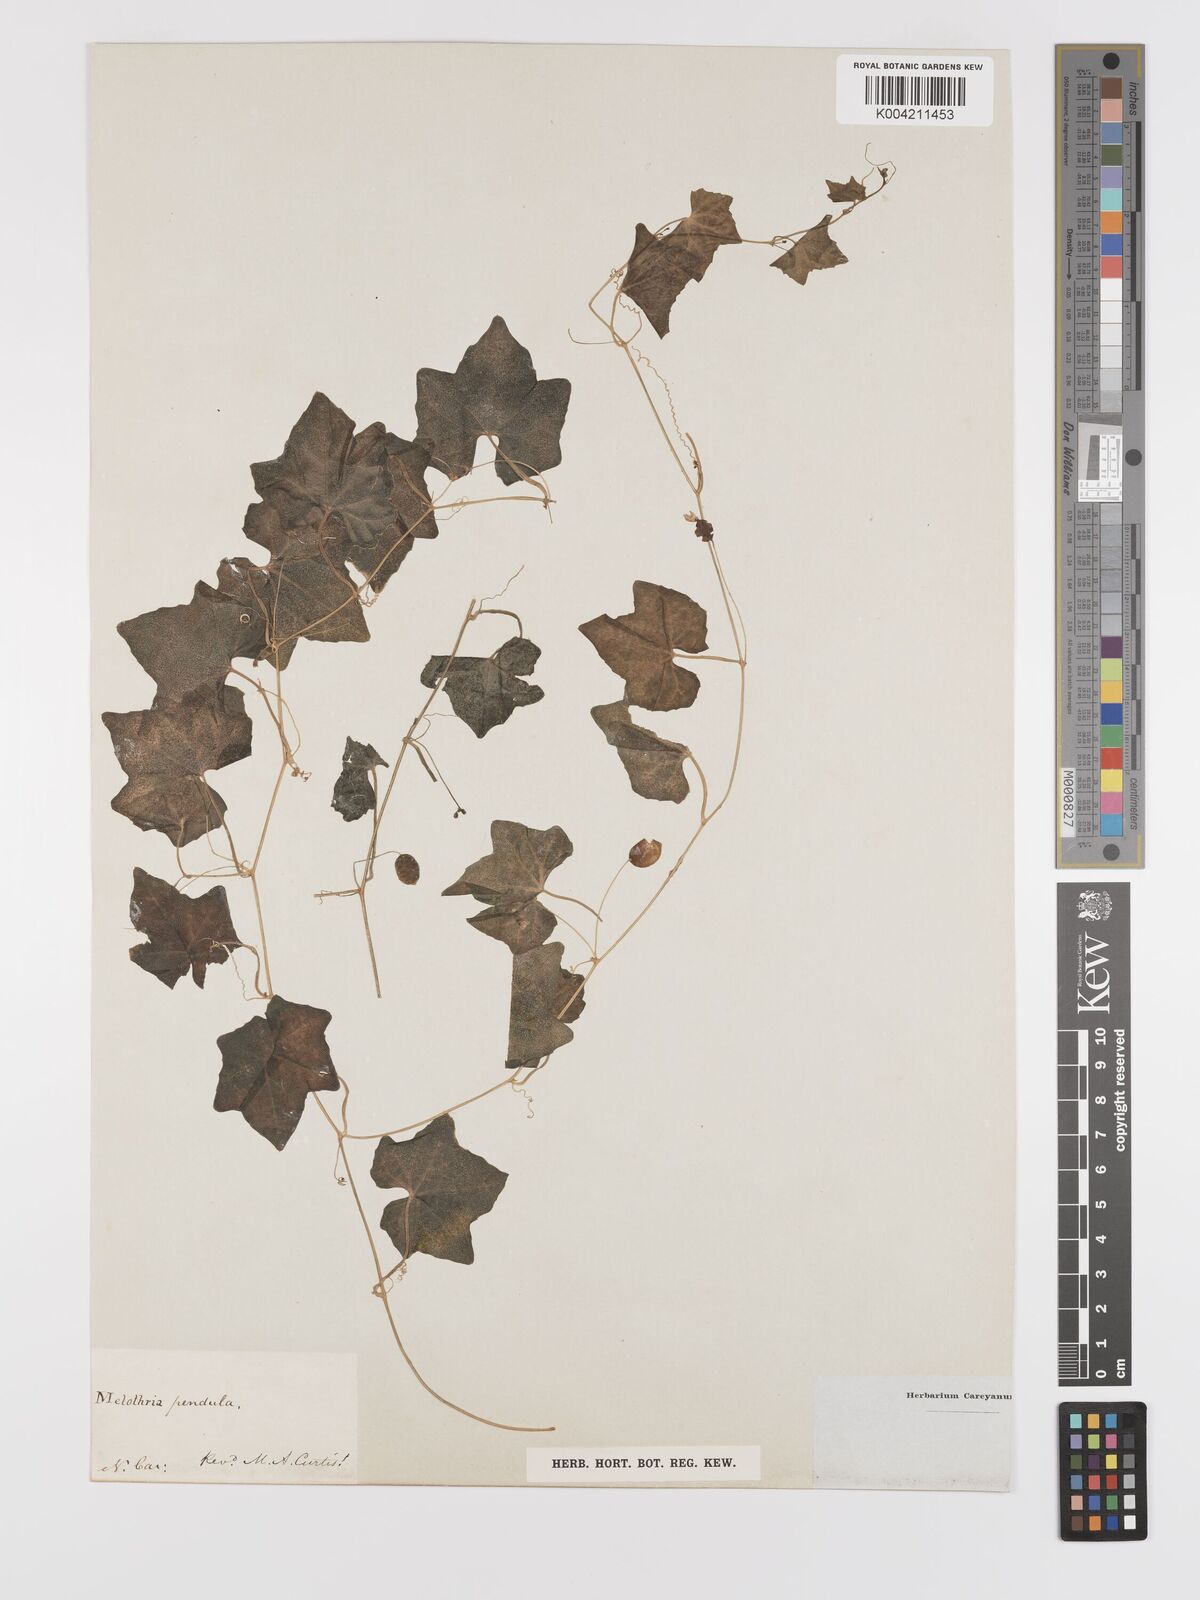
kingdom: Plantae
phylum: Tracheophyta
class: Magnoliopsida
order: Cucurbitales
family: Cucurbitaceae
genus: Melothria
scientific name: Melothria pendula
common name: Creeping-cucumber
